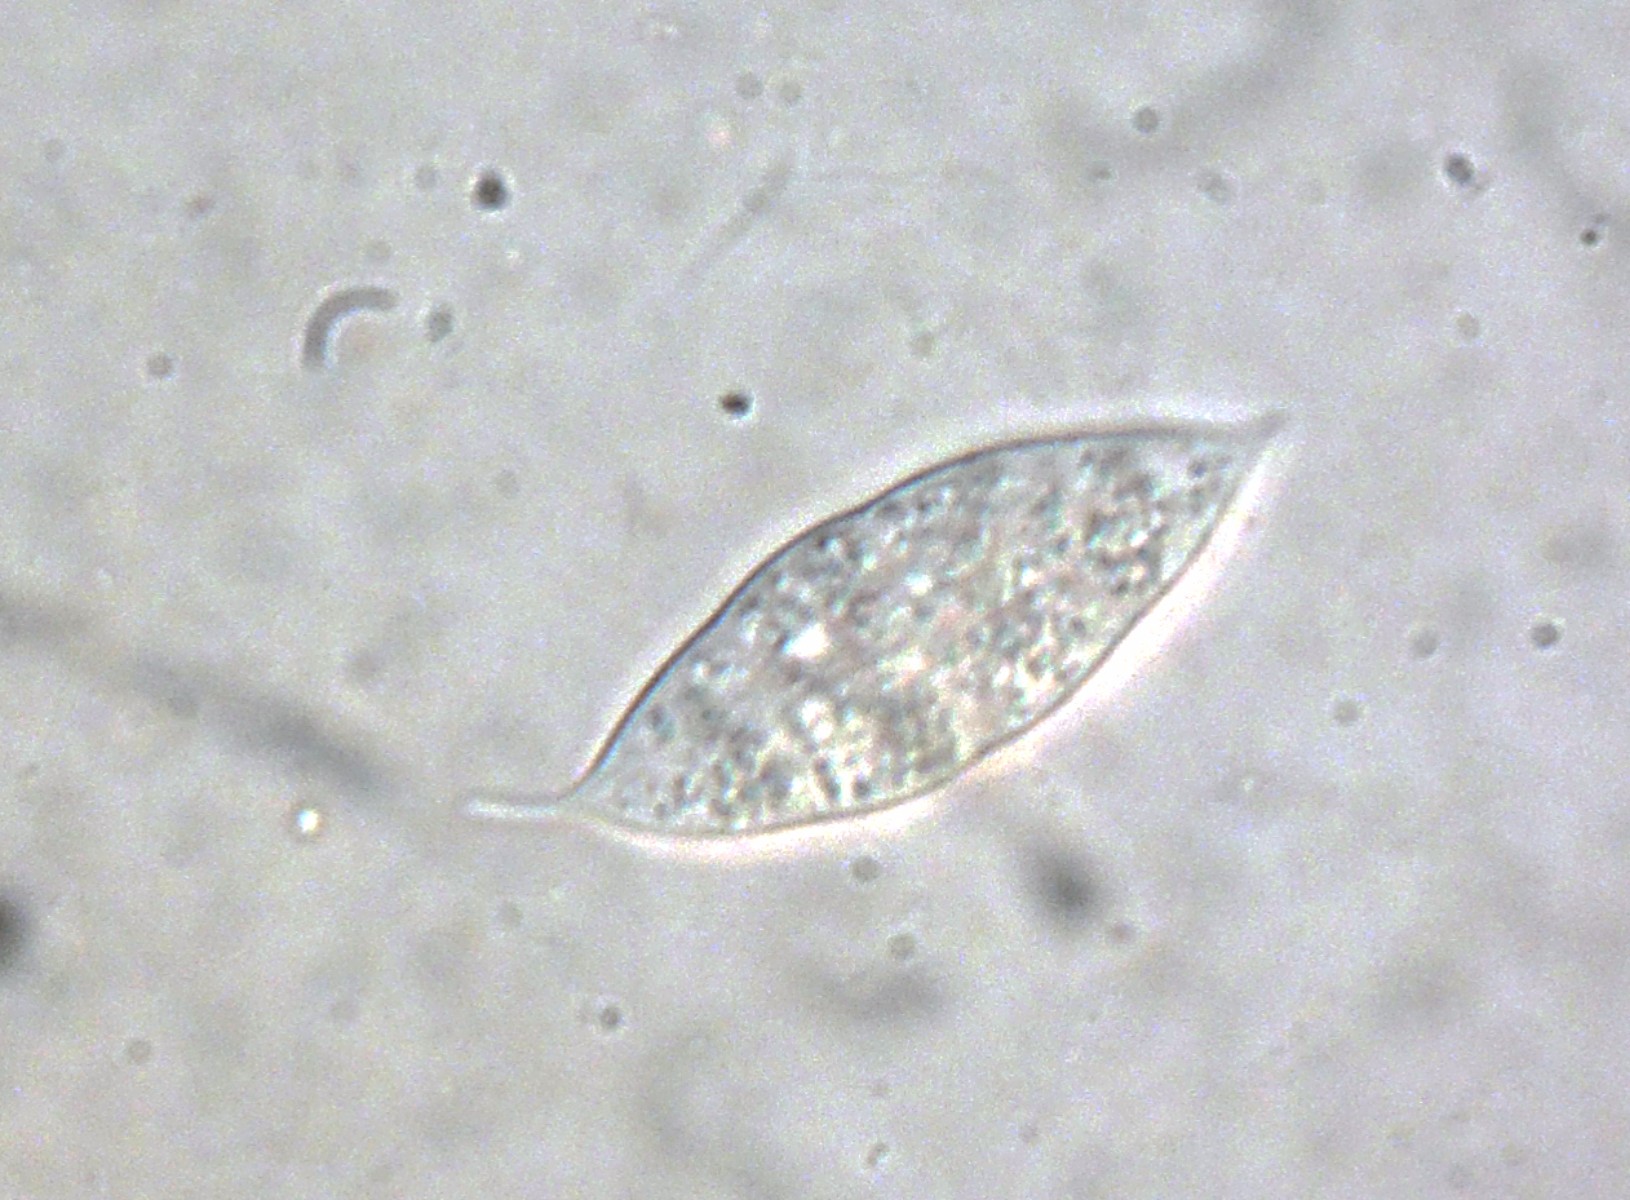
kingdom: Fungi
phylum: Ascomycota
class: Sordariomycetes
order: Hypocreales
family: Bionectriaceae
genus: Paranectria
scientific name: Paranectria oropensis
